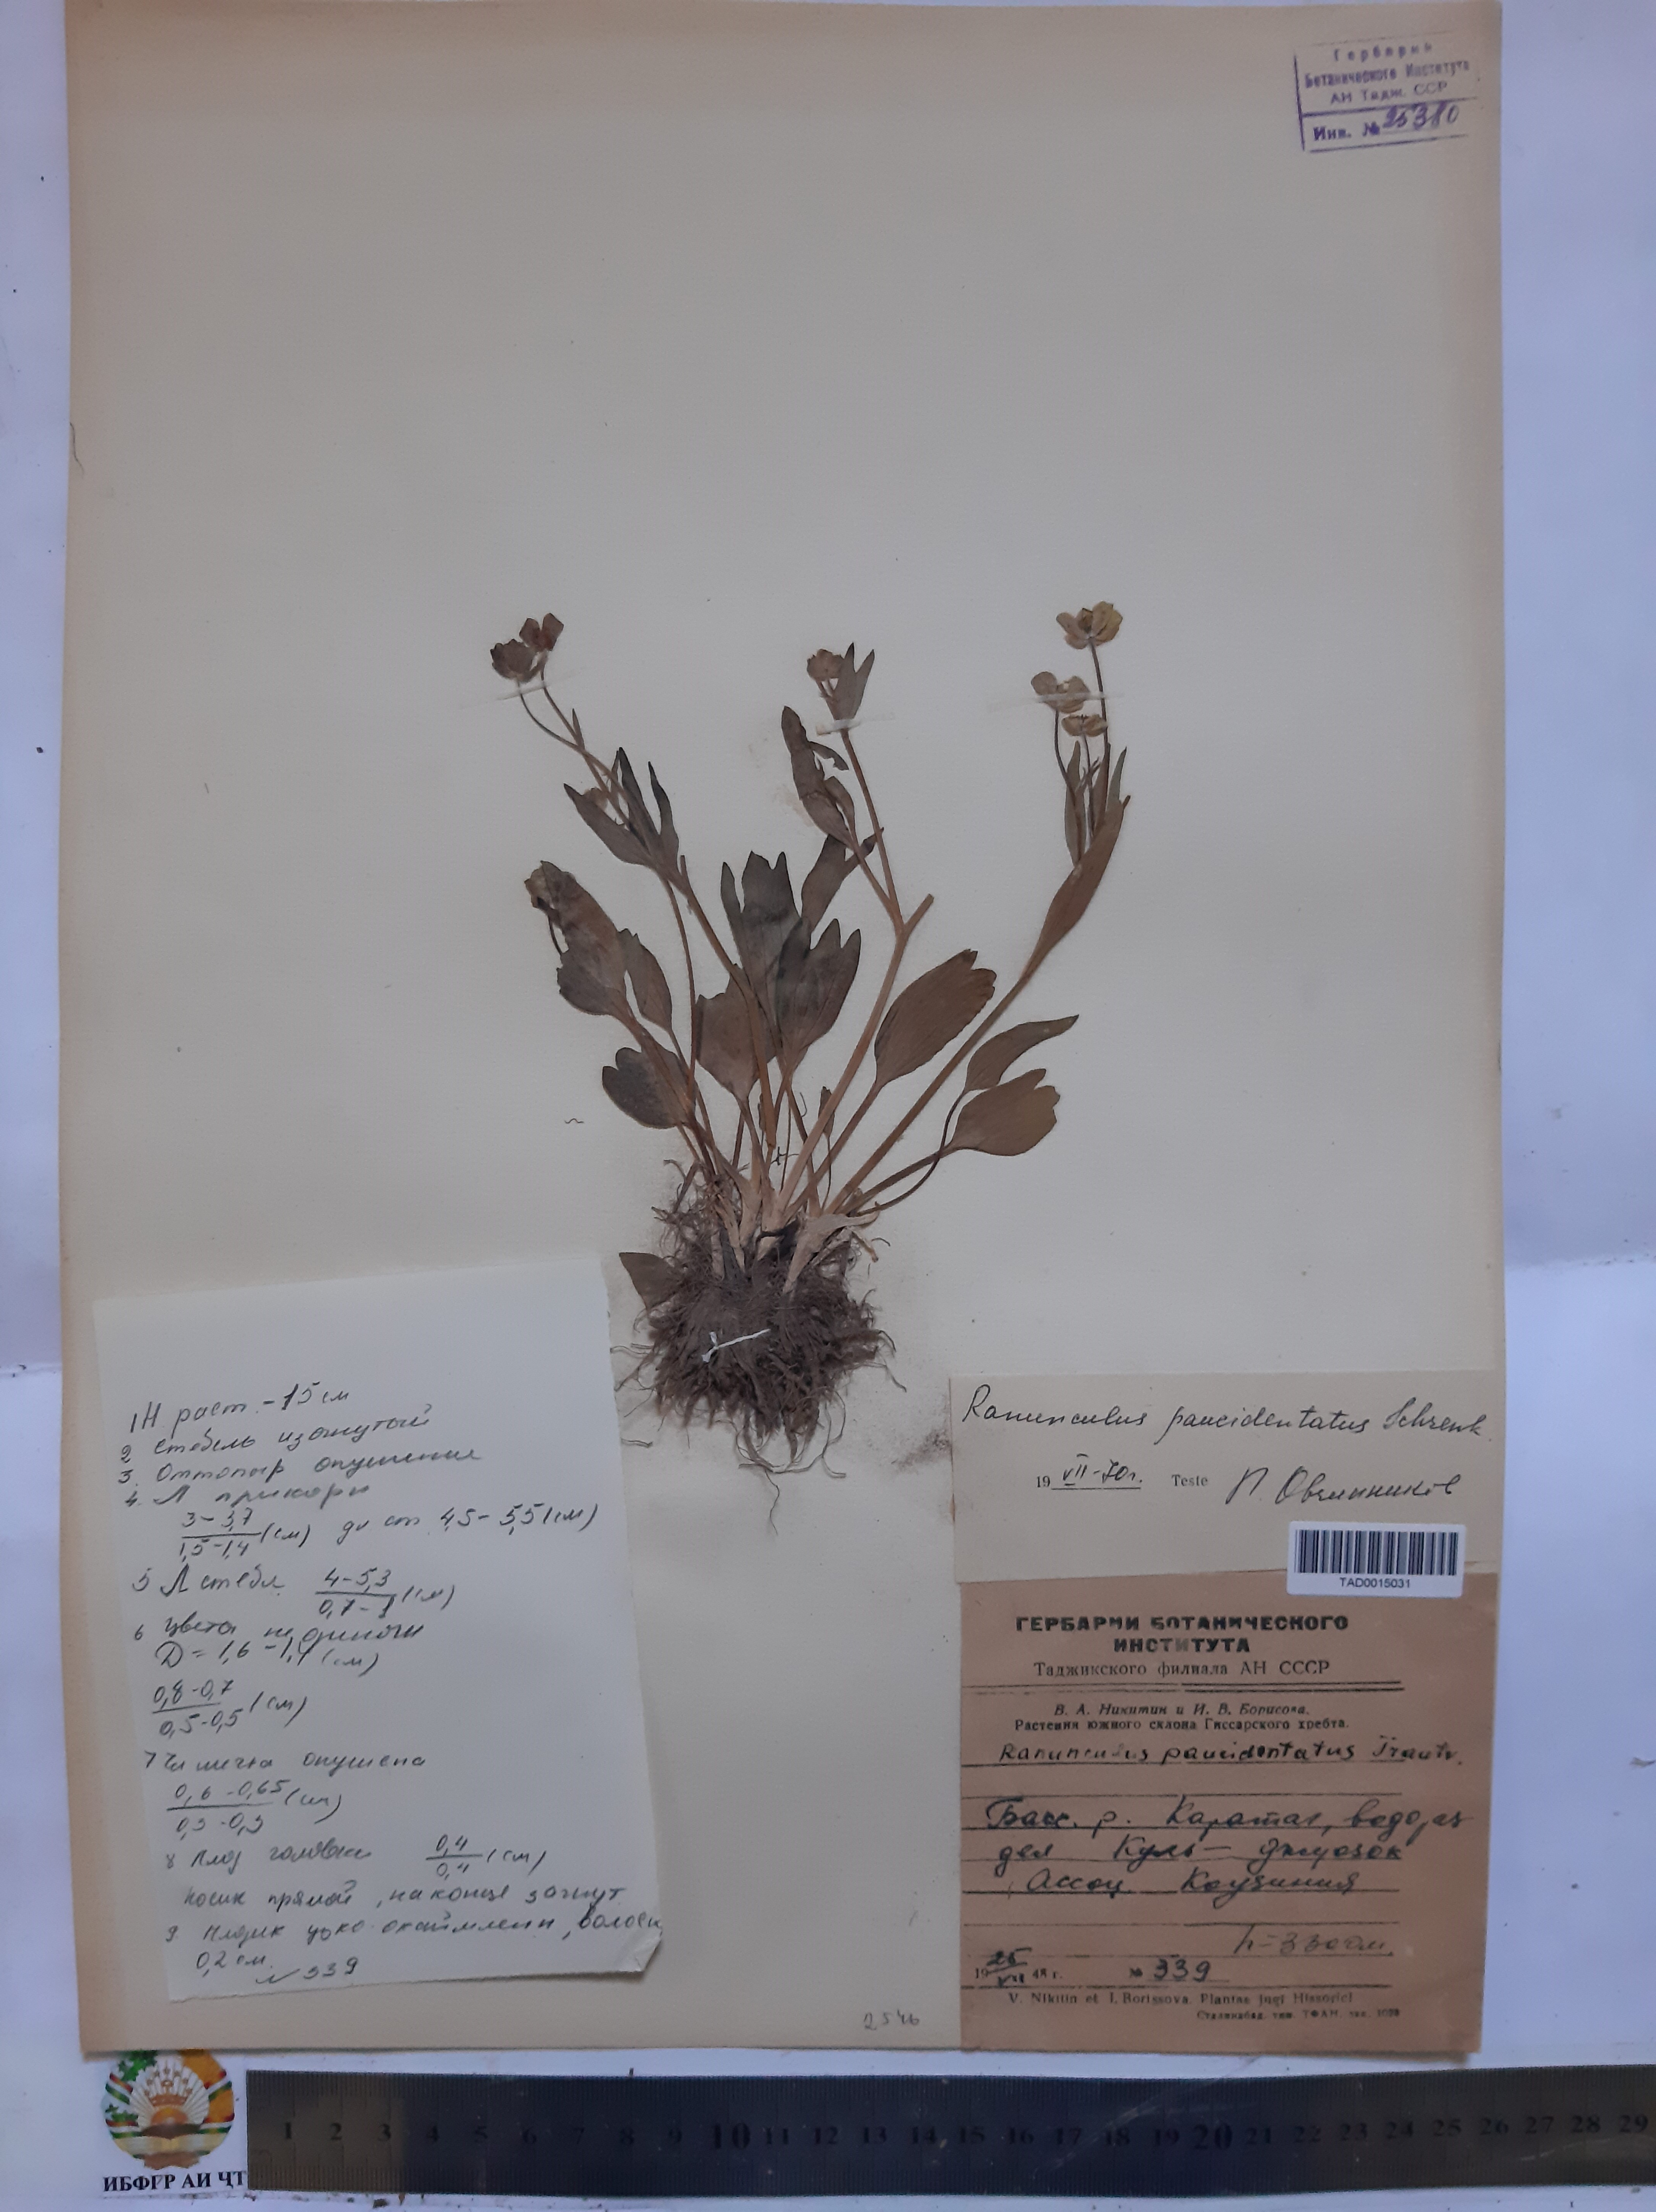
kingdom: Plantae
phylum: Tracheophyta
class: Magnoliopsida
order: Ranunculales
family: Ranunculaceae
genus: Ranunculus
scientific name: Ranunculus paucidentatus
